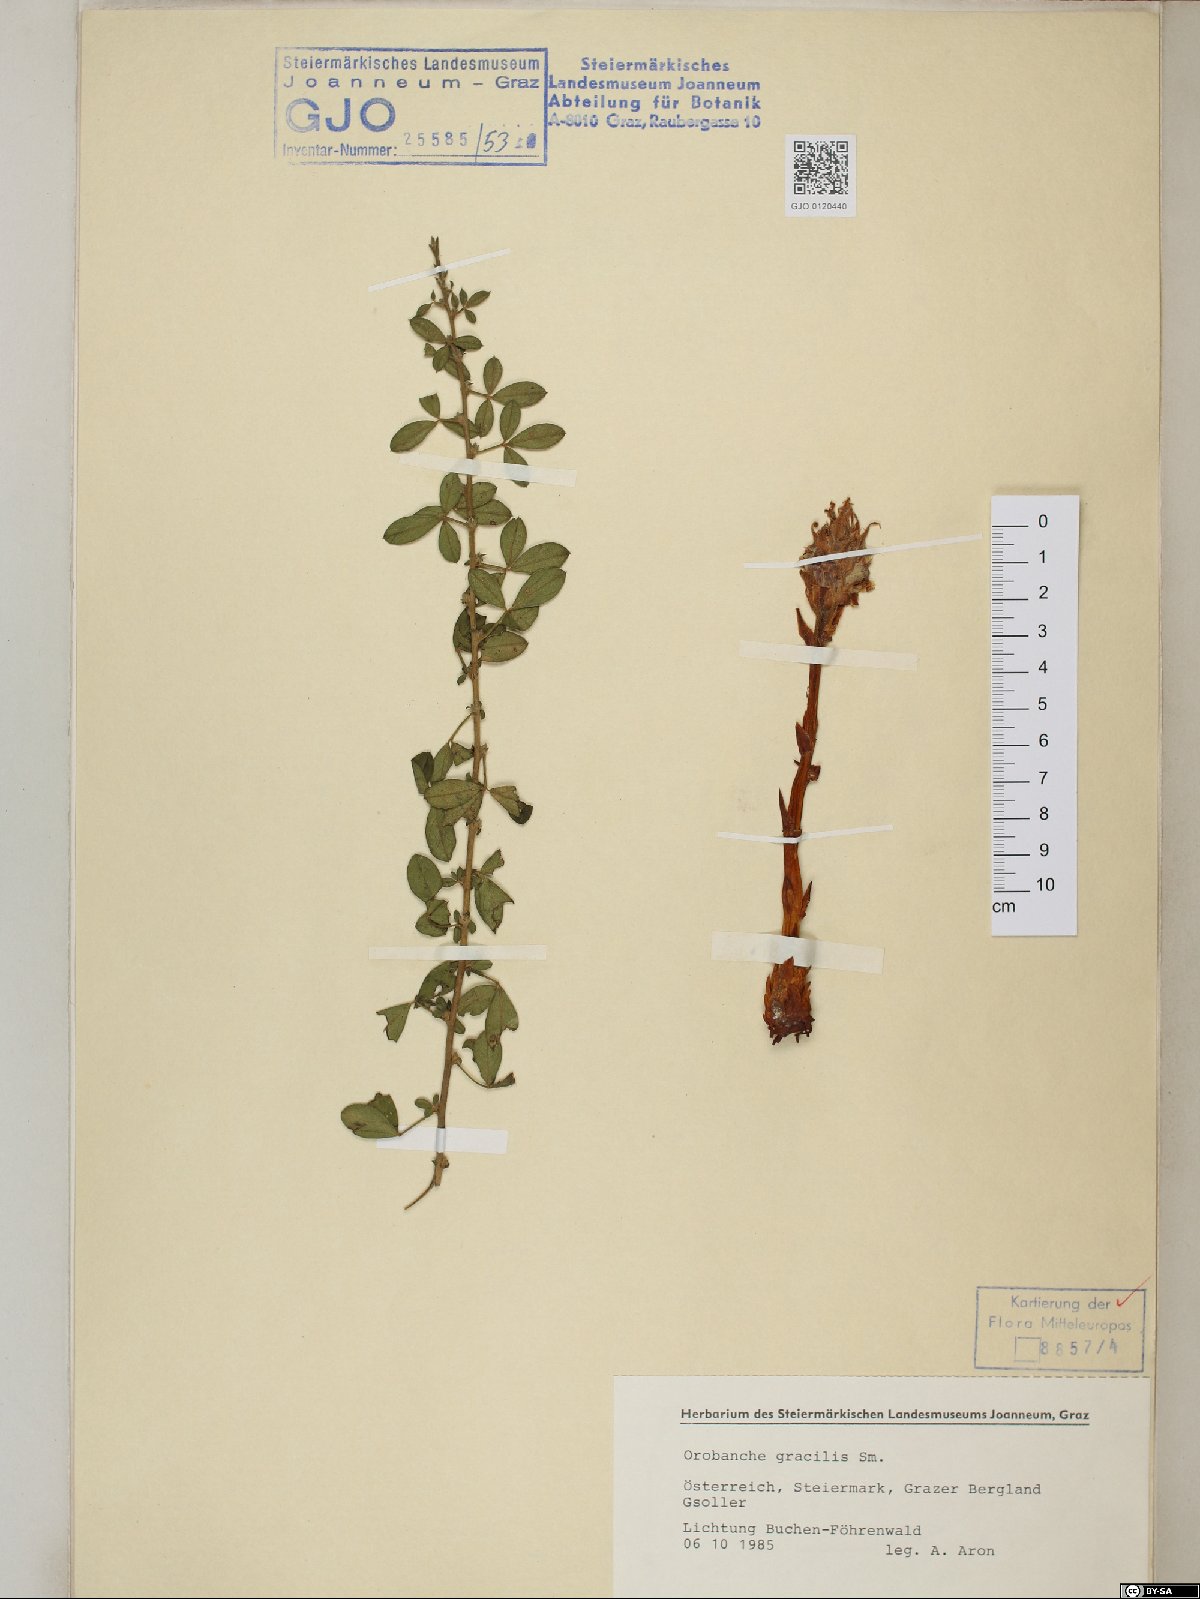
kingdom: Plantae
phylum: Tracheophyta
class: Magnoliopsida
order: Lamiales
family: Orobanchaceae
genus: Orobanche
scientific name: Orobanche gracilis
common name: Slender broomrape
